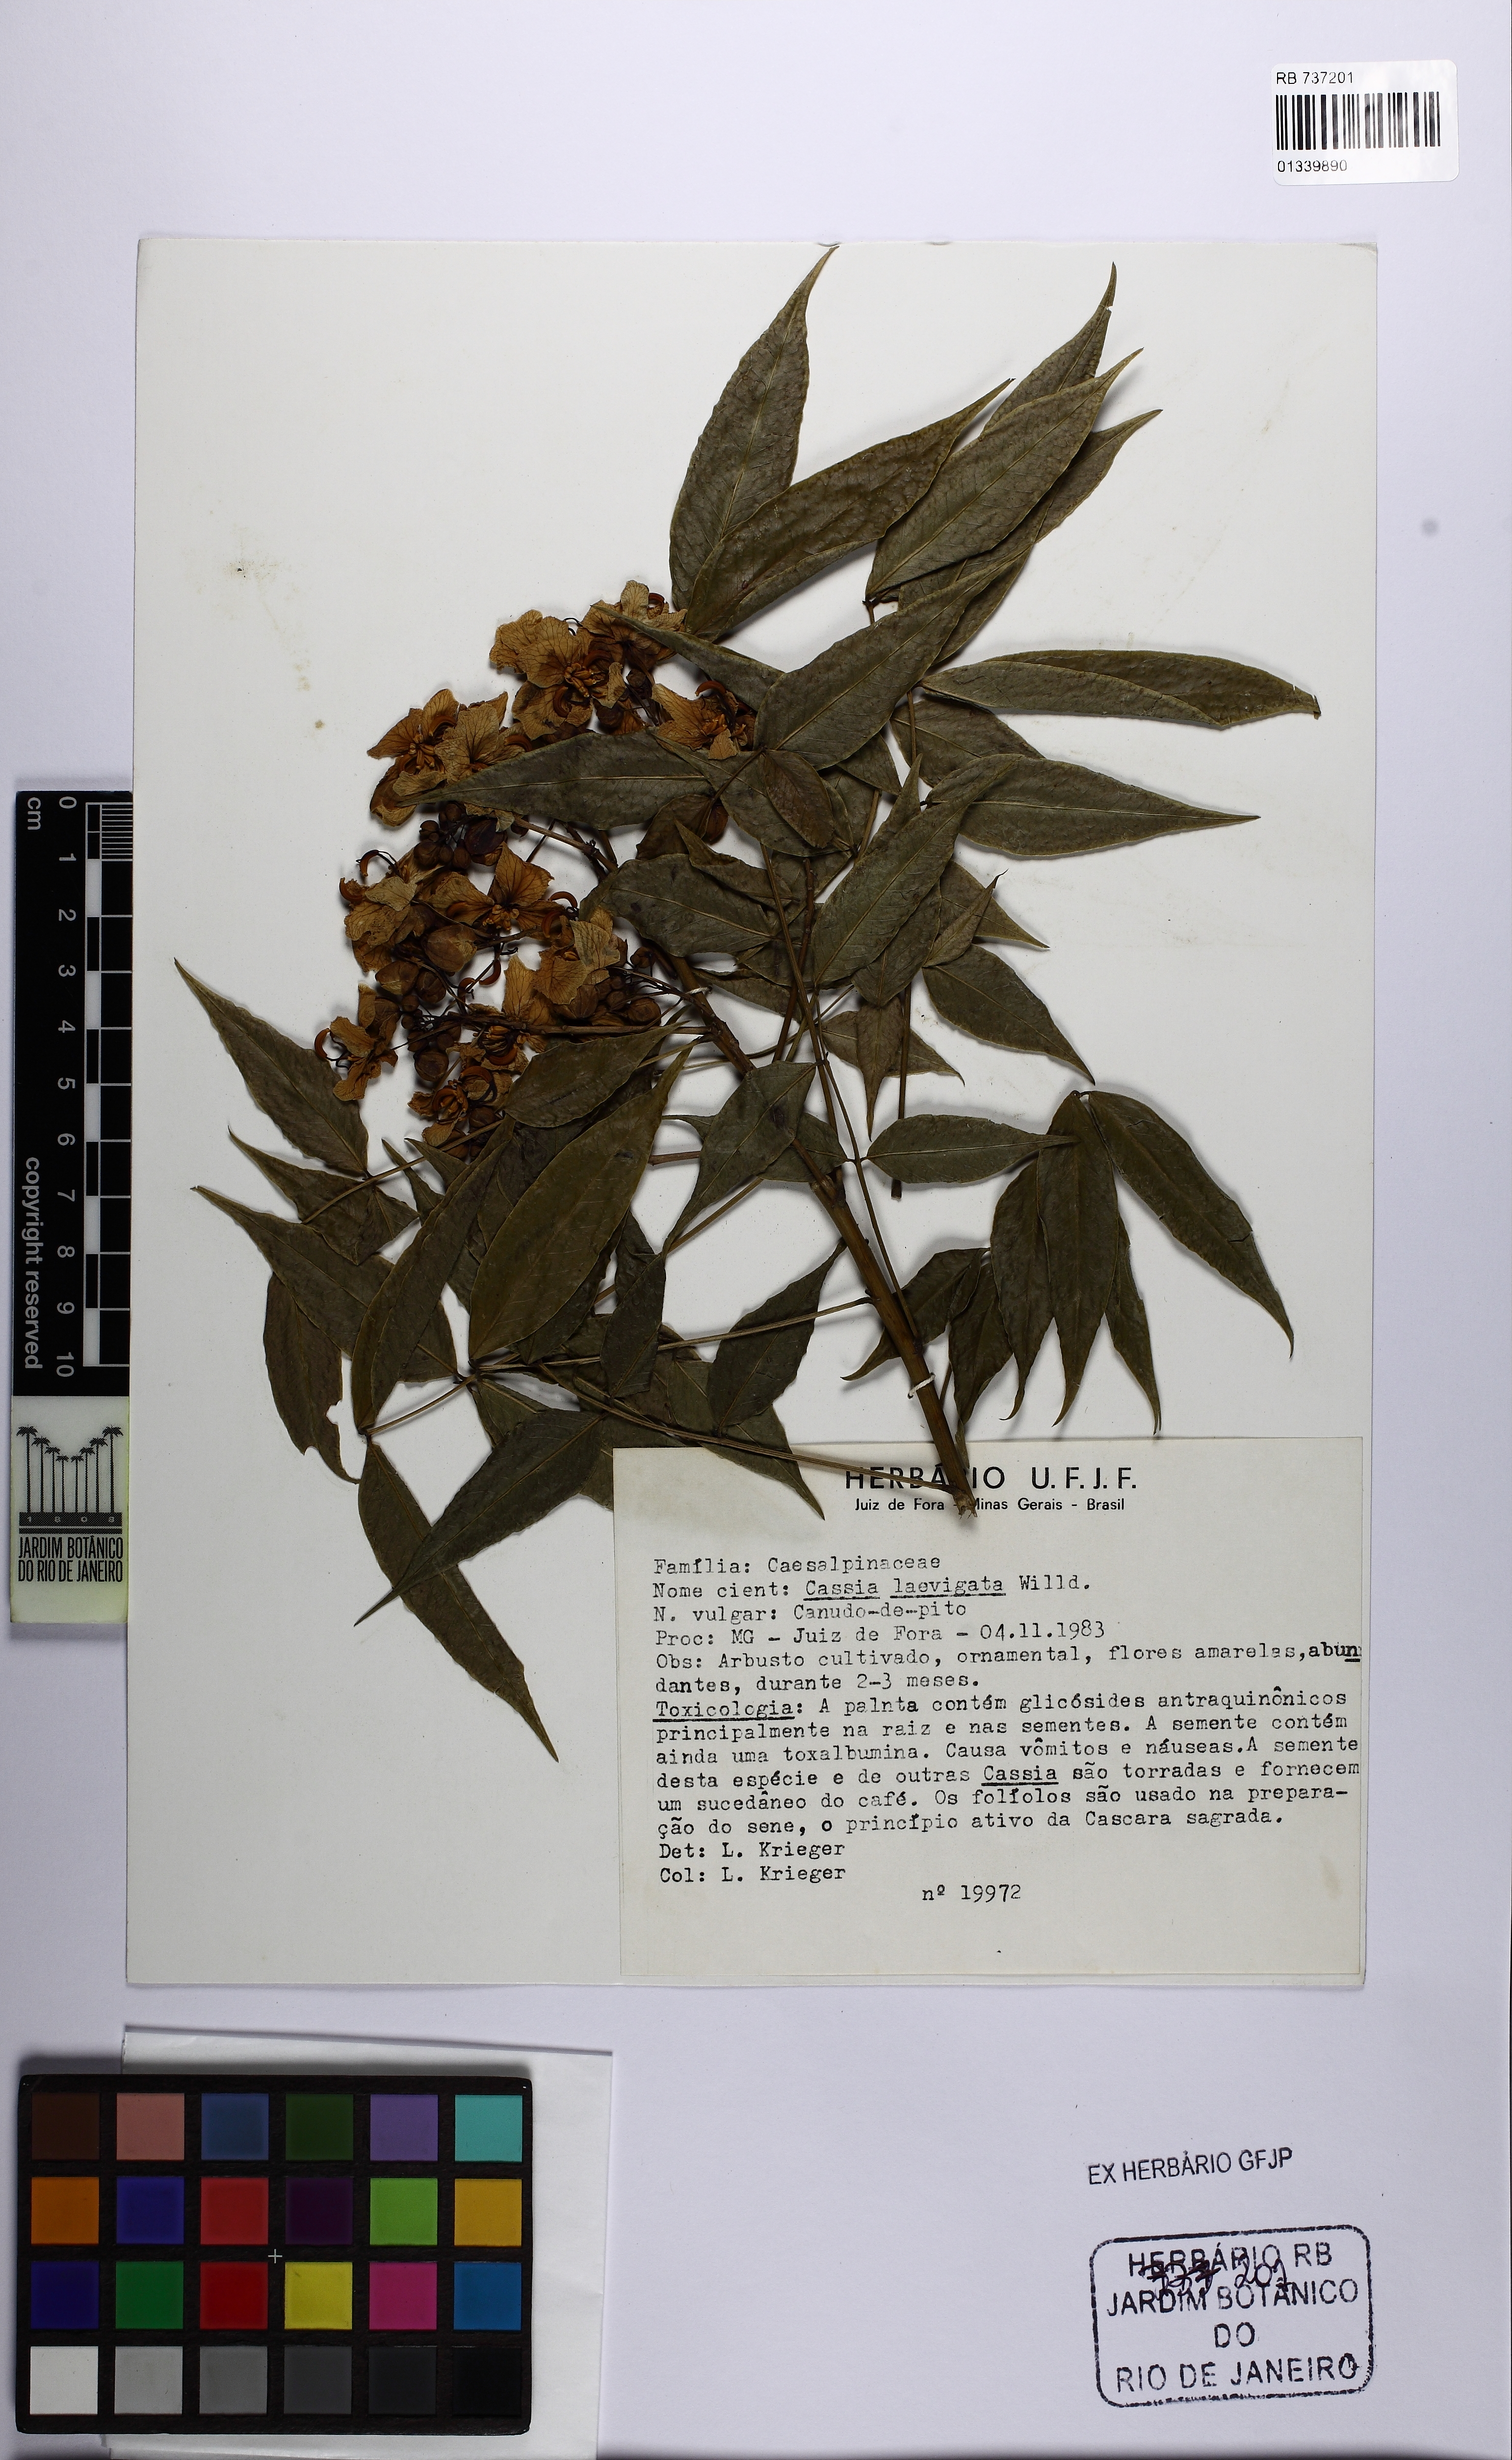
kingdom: Plantae
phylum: Tracheophyta
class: Magnoliopsida
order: Fabales
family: Fabaceae
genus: Senna
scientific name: Senna septemtrionalis
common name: Arsenic bush
